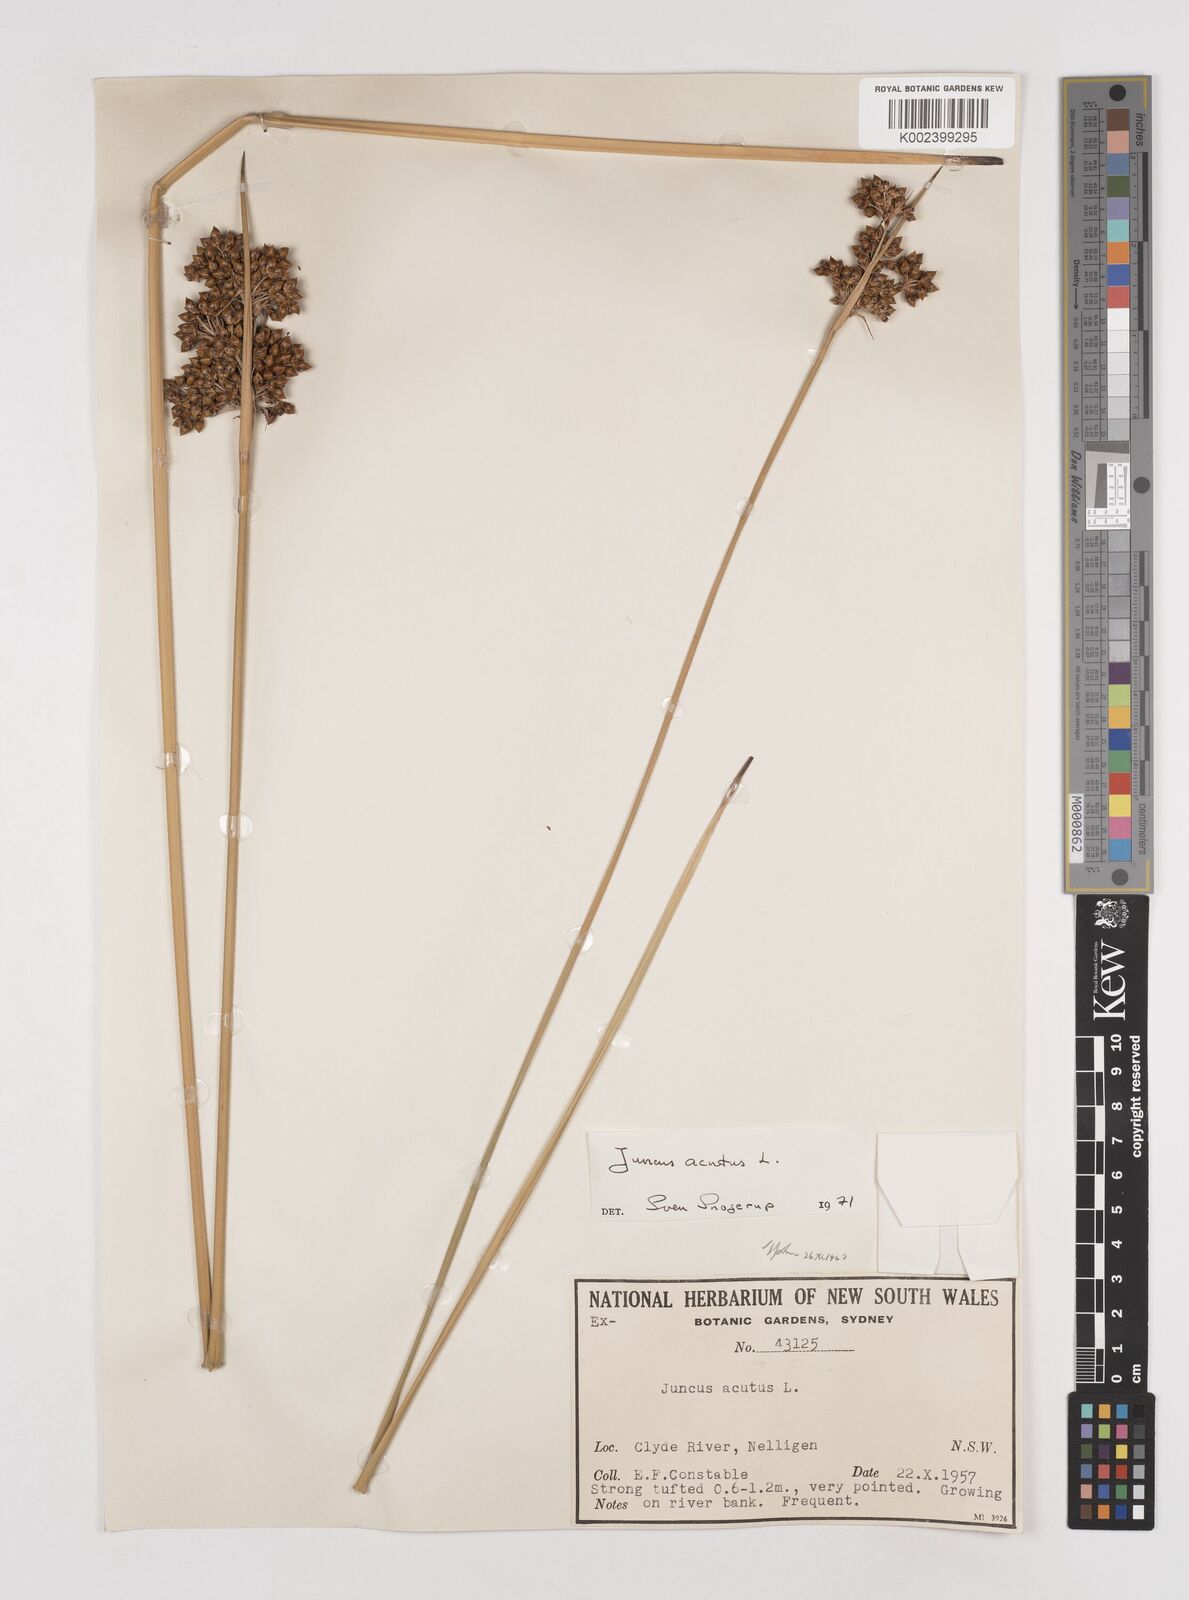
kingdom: Plantae
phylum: Tracheophyta
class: Liliopsida
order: Poales
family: Juncaceae
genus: Juncus
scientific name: Juncus acutus
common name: Sharp rush
